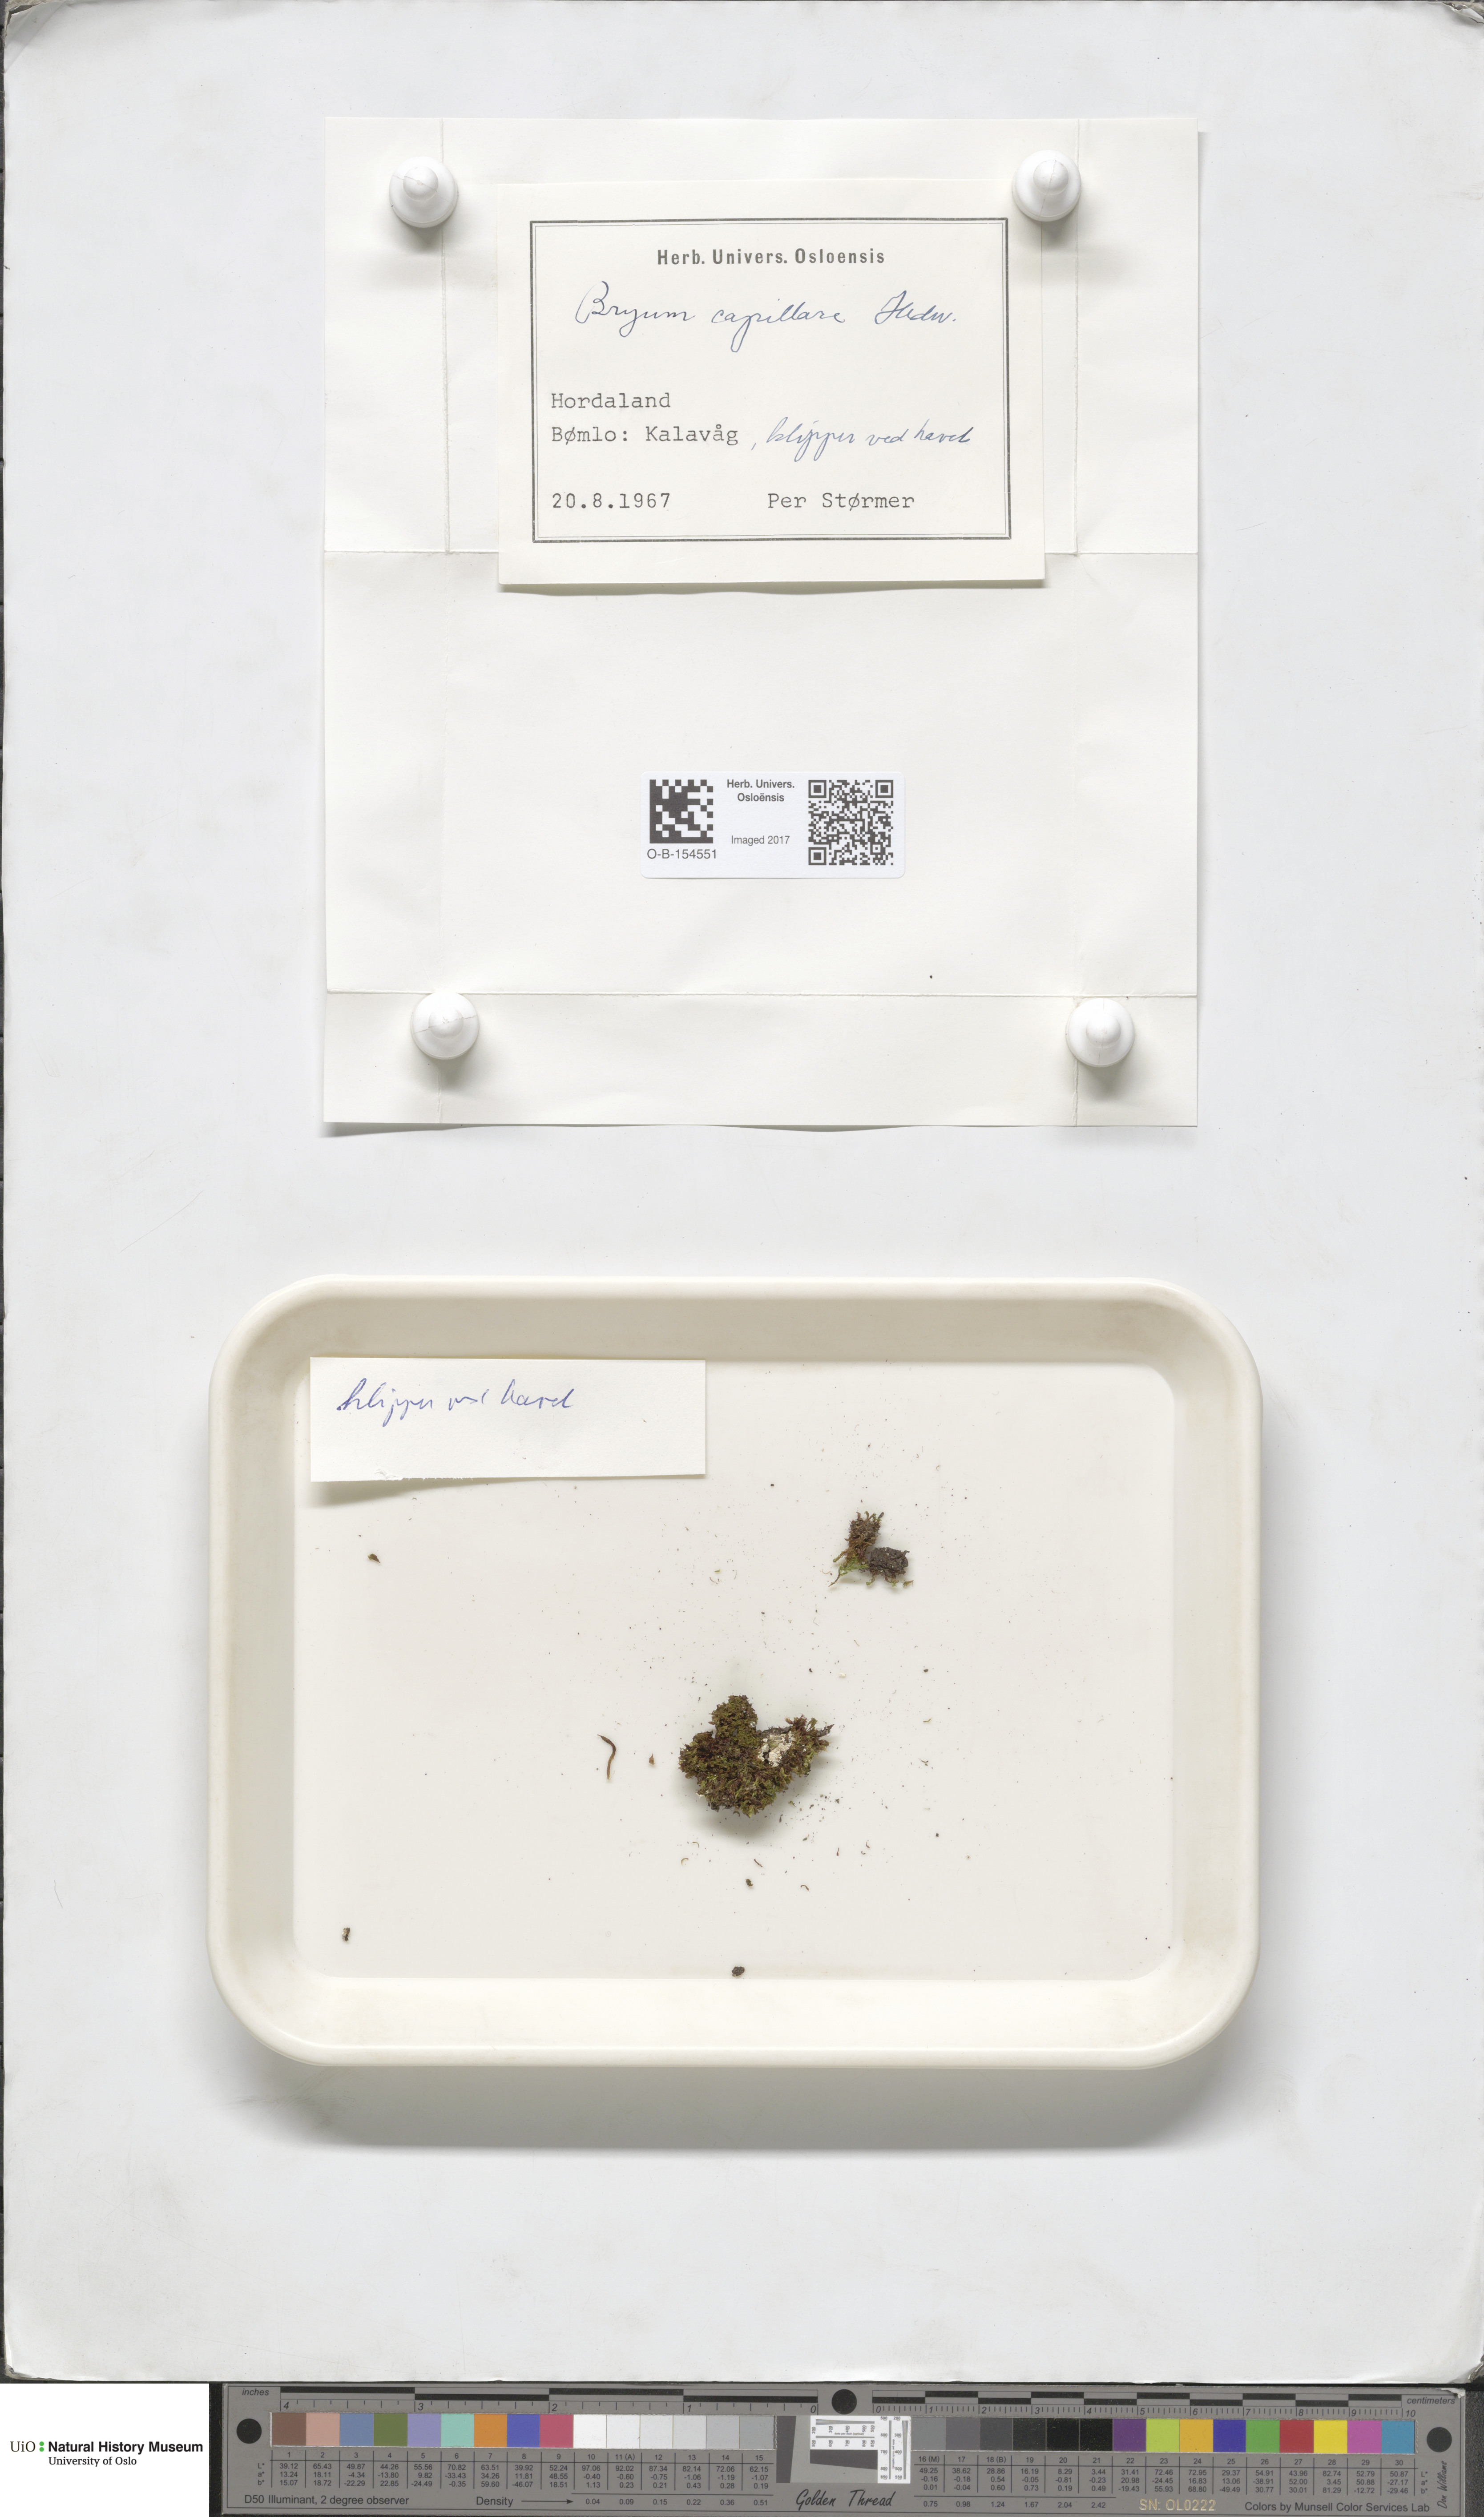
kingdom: Plantae
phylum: Bryophyta
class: Bryopsida
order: Bryales
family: Bryaceae
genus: Rosulabryum
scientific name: Rosulabryum capillare
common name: Capillary thread-moss
